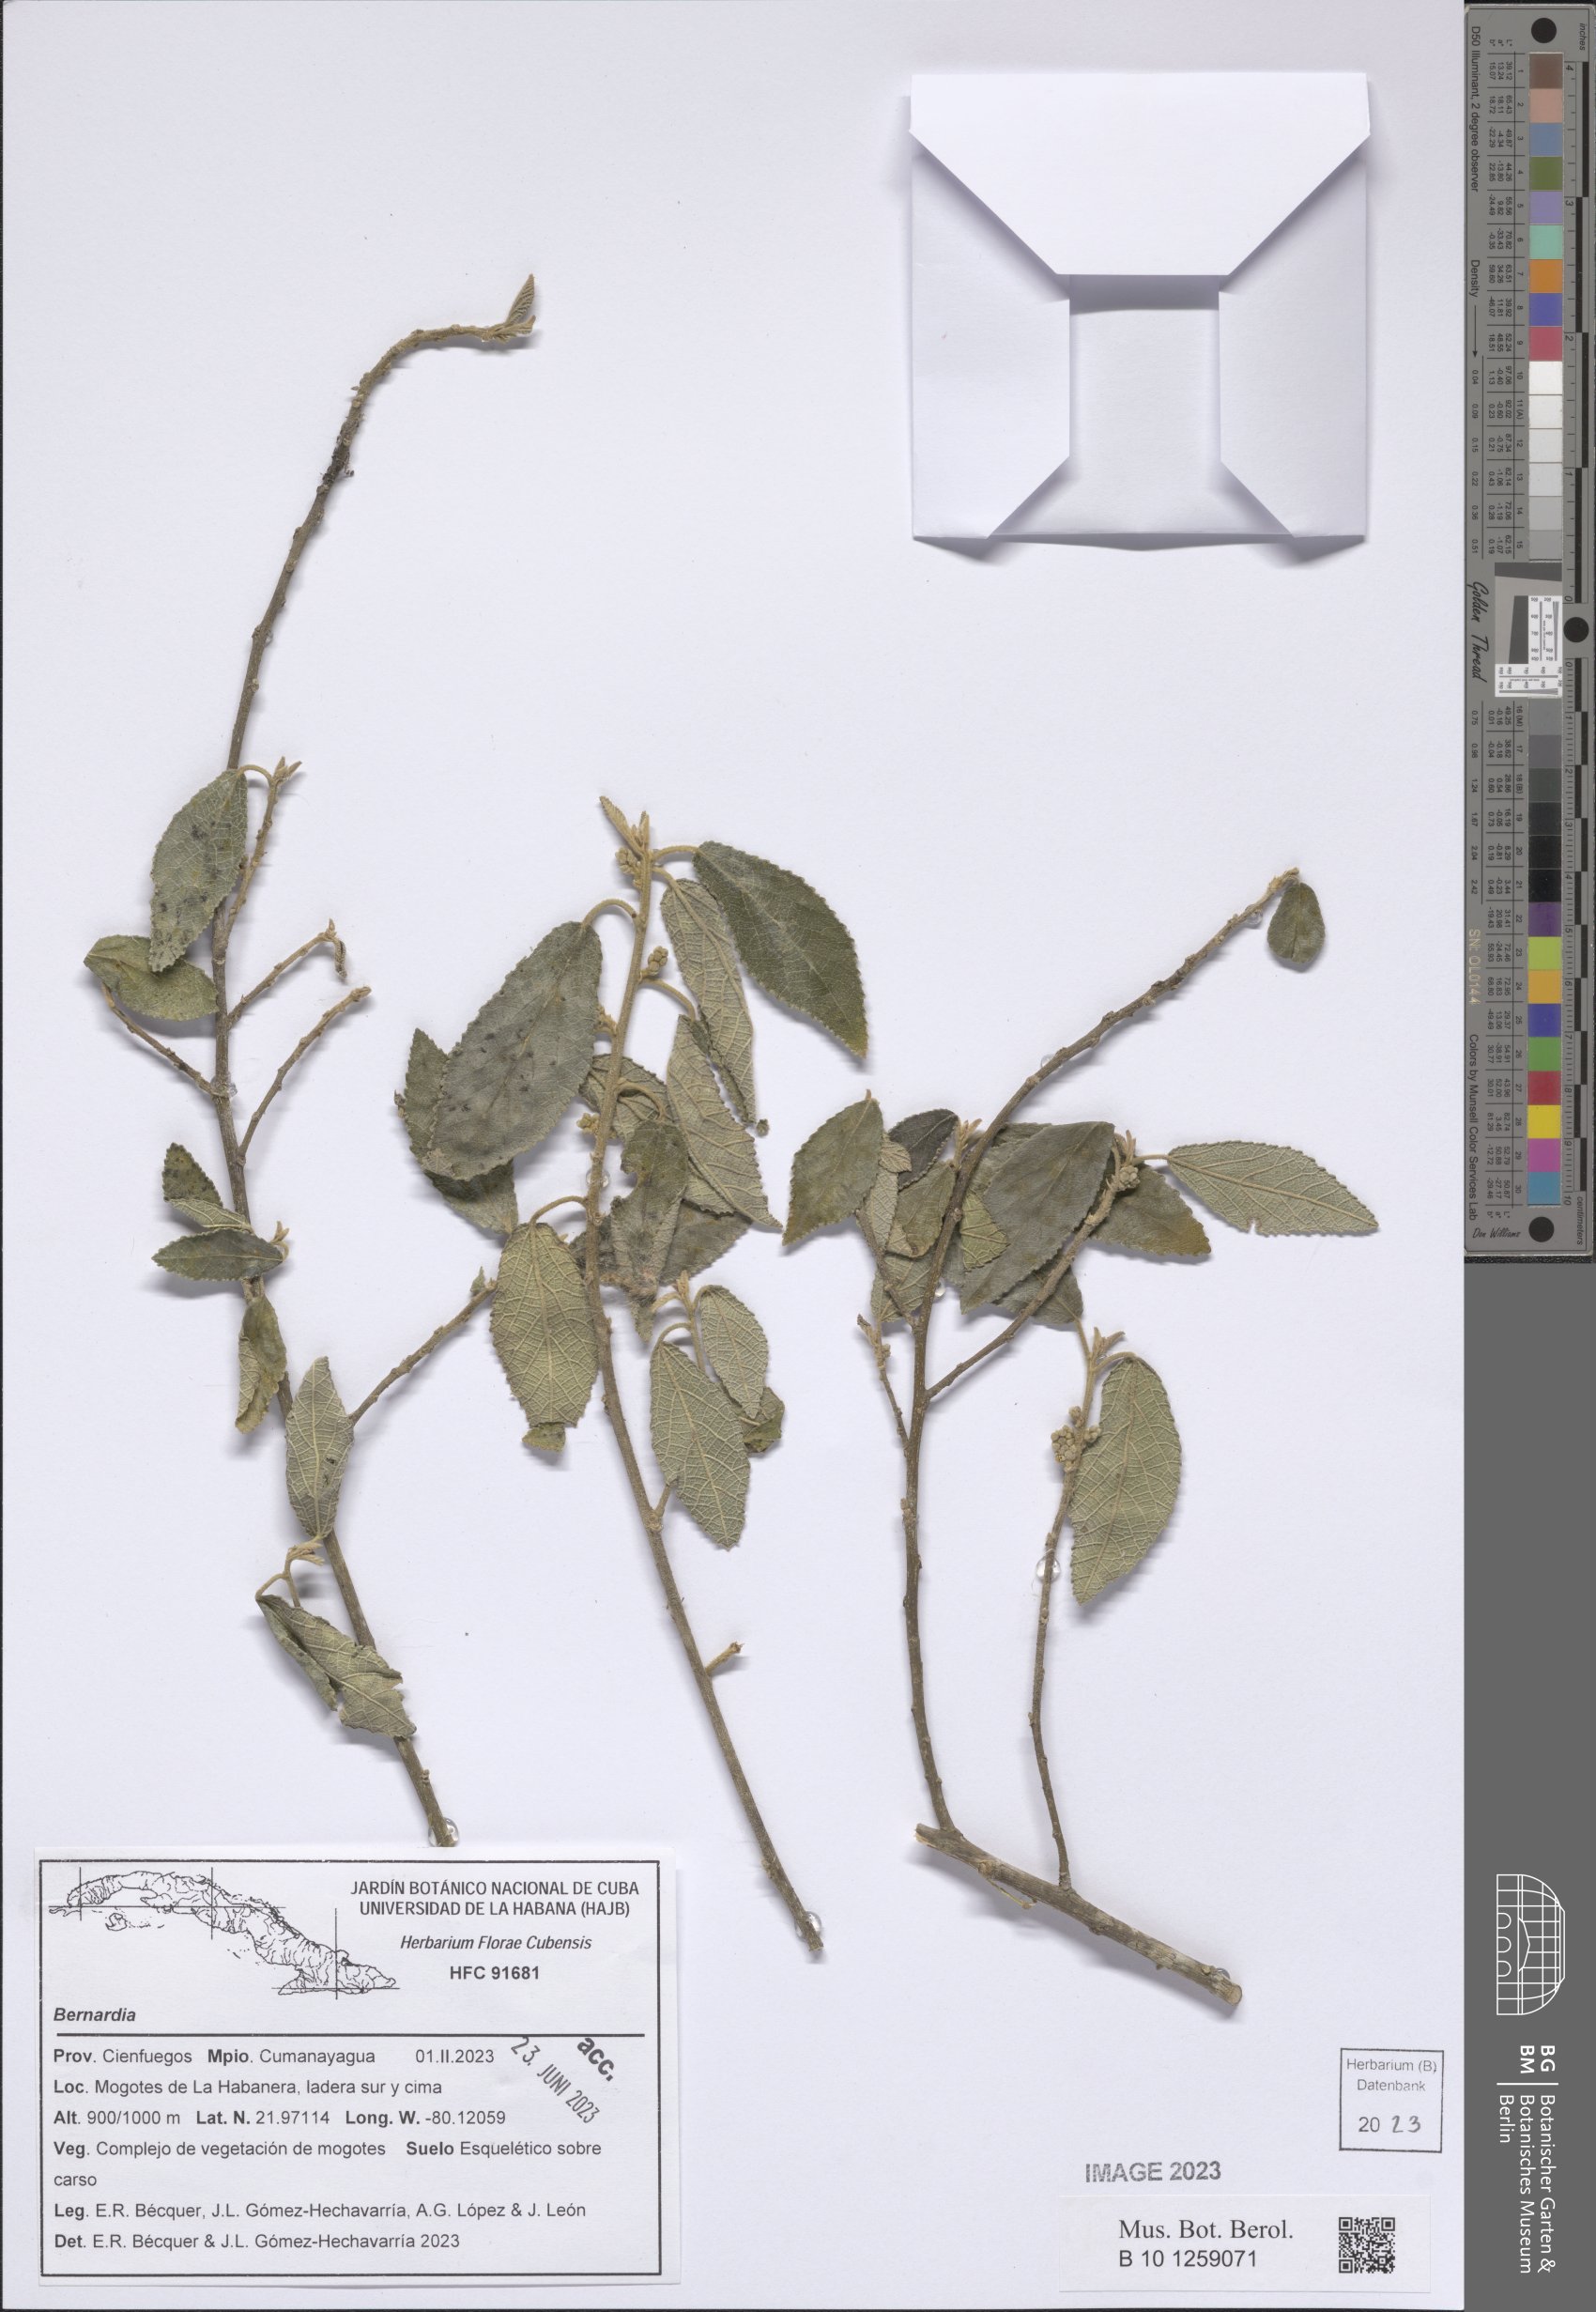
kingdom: Plantae
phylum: Tracheophyta
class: Magnoliopsida
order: Malpighiales
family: Euphorbiaceae
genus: Bernardia
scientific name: Bernardia
